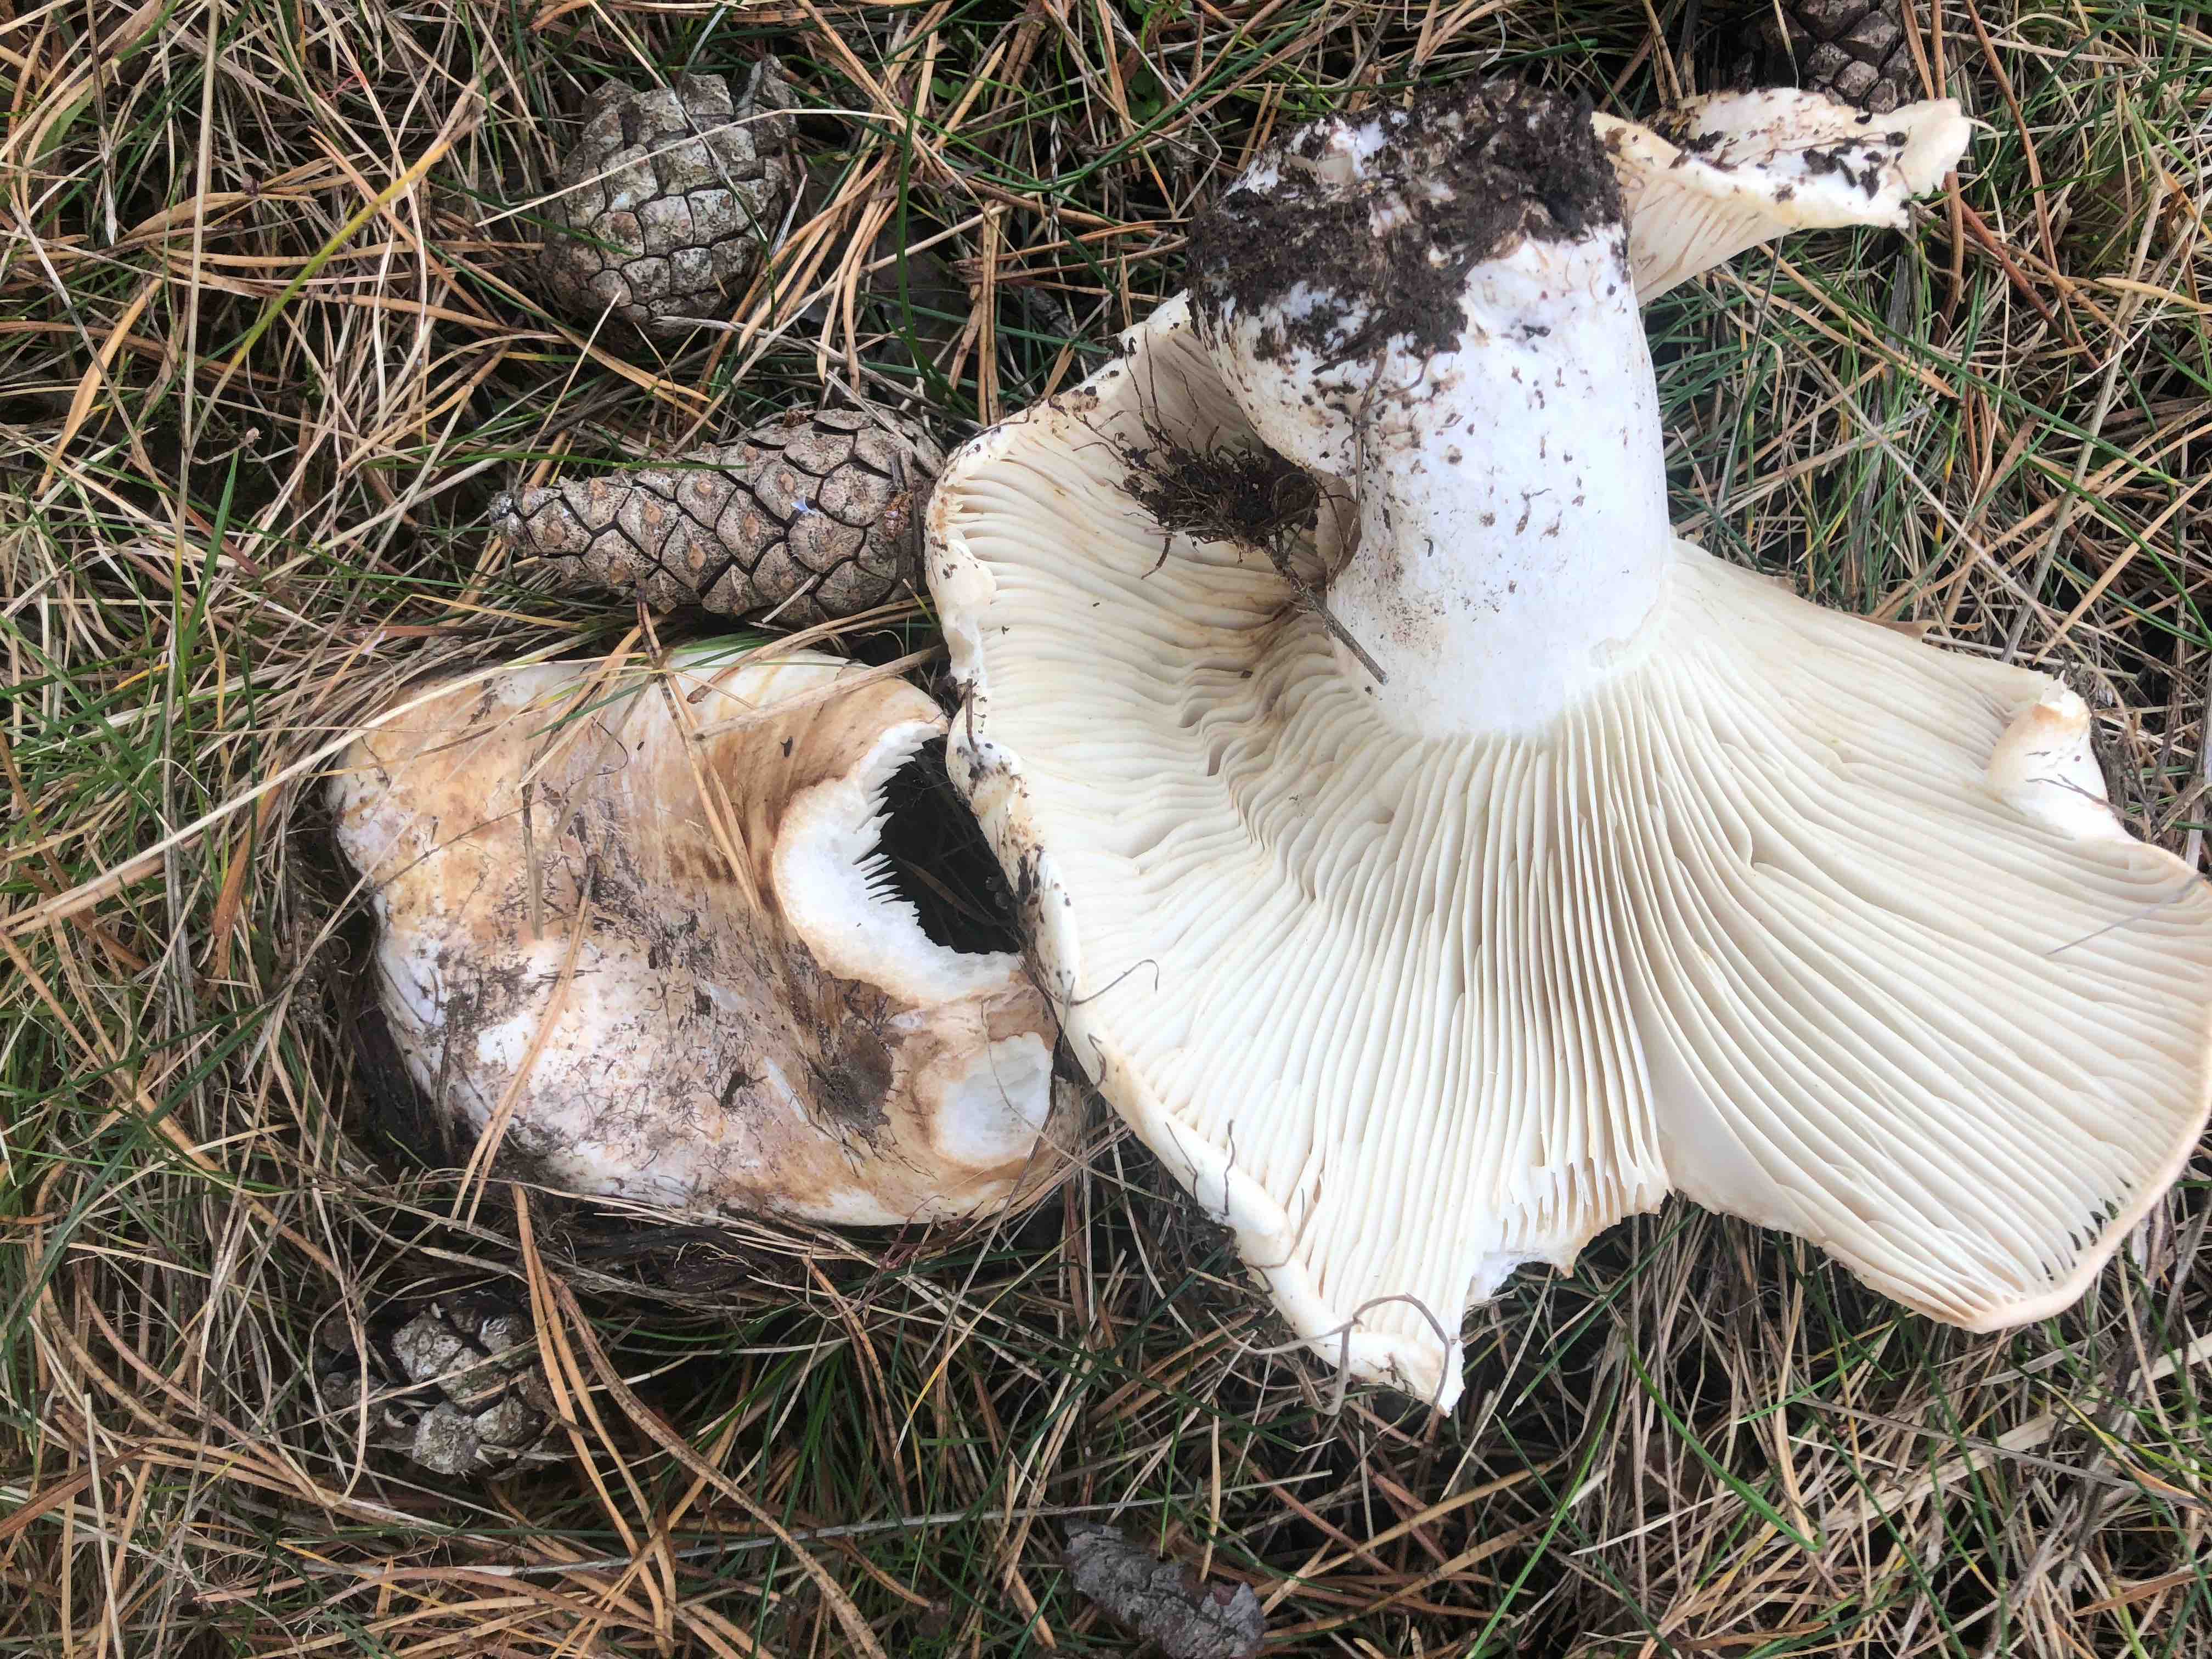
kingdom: Fungi
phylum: Basidiomycota
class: Agaricomycetes
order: Russulales
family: Russulaceae
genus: Lactifluus
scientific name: Lactifluus vellereus
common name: hvidfiltet mælkehat
